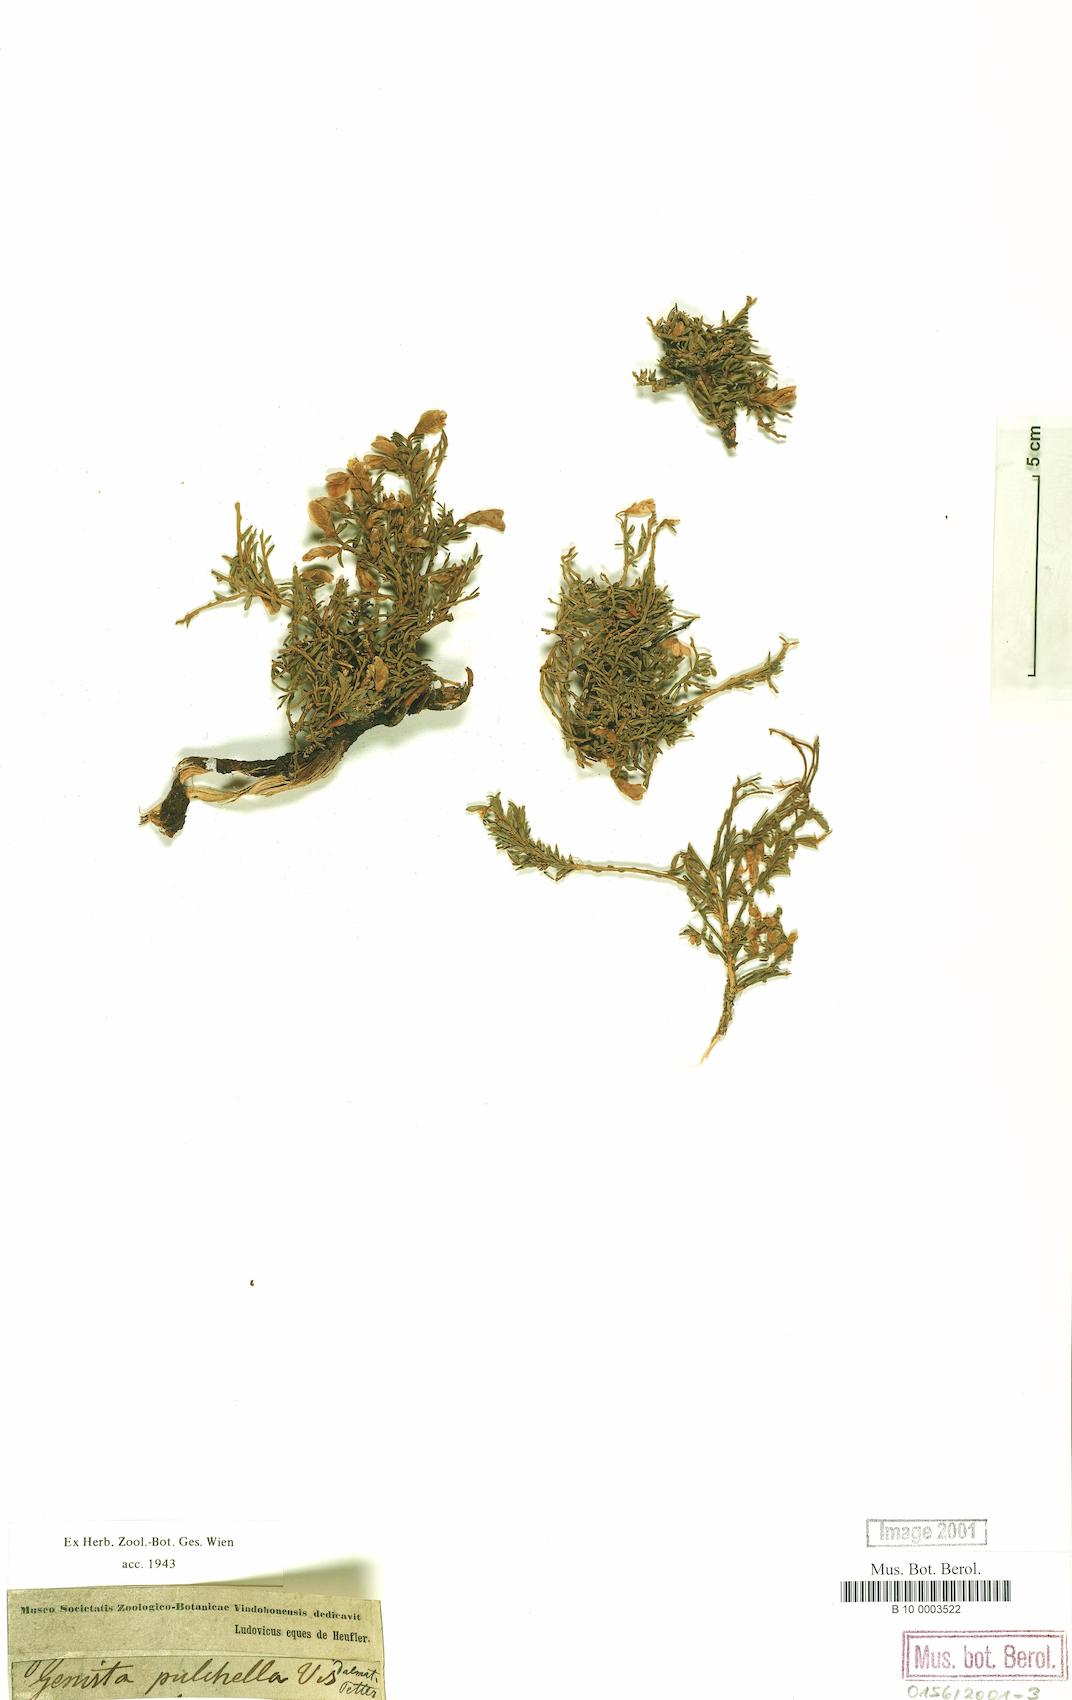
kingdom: Plantae
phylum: Tracheophyta
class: Magnoliopsida
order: Fabales
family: Fabaceae
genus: Genista
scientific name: Genista pulchella
